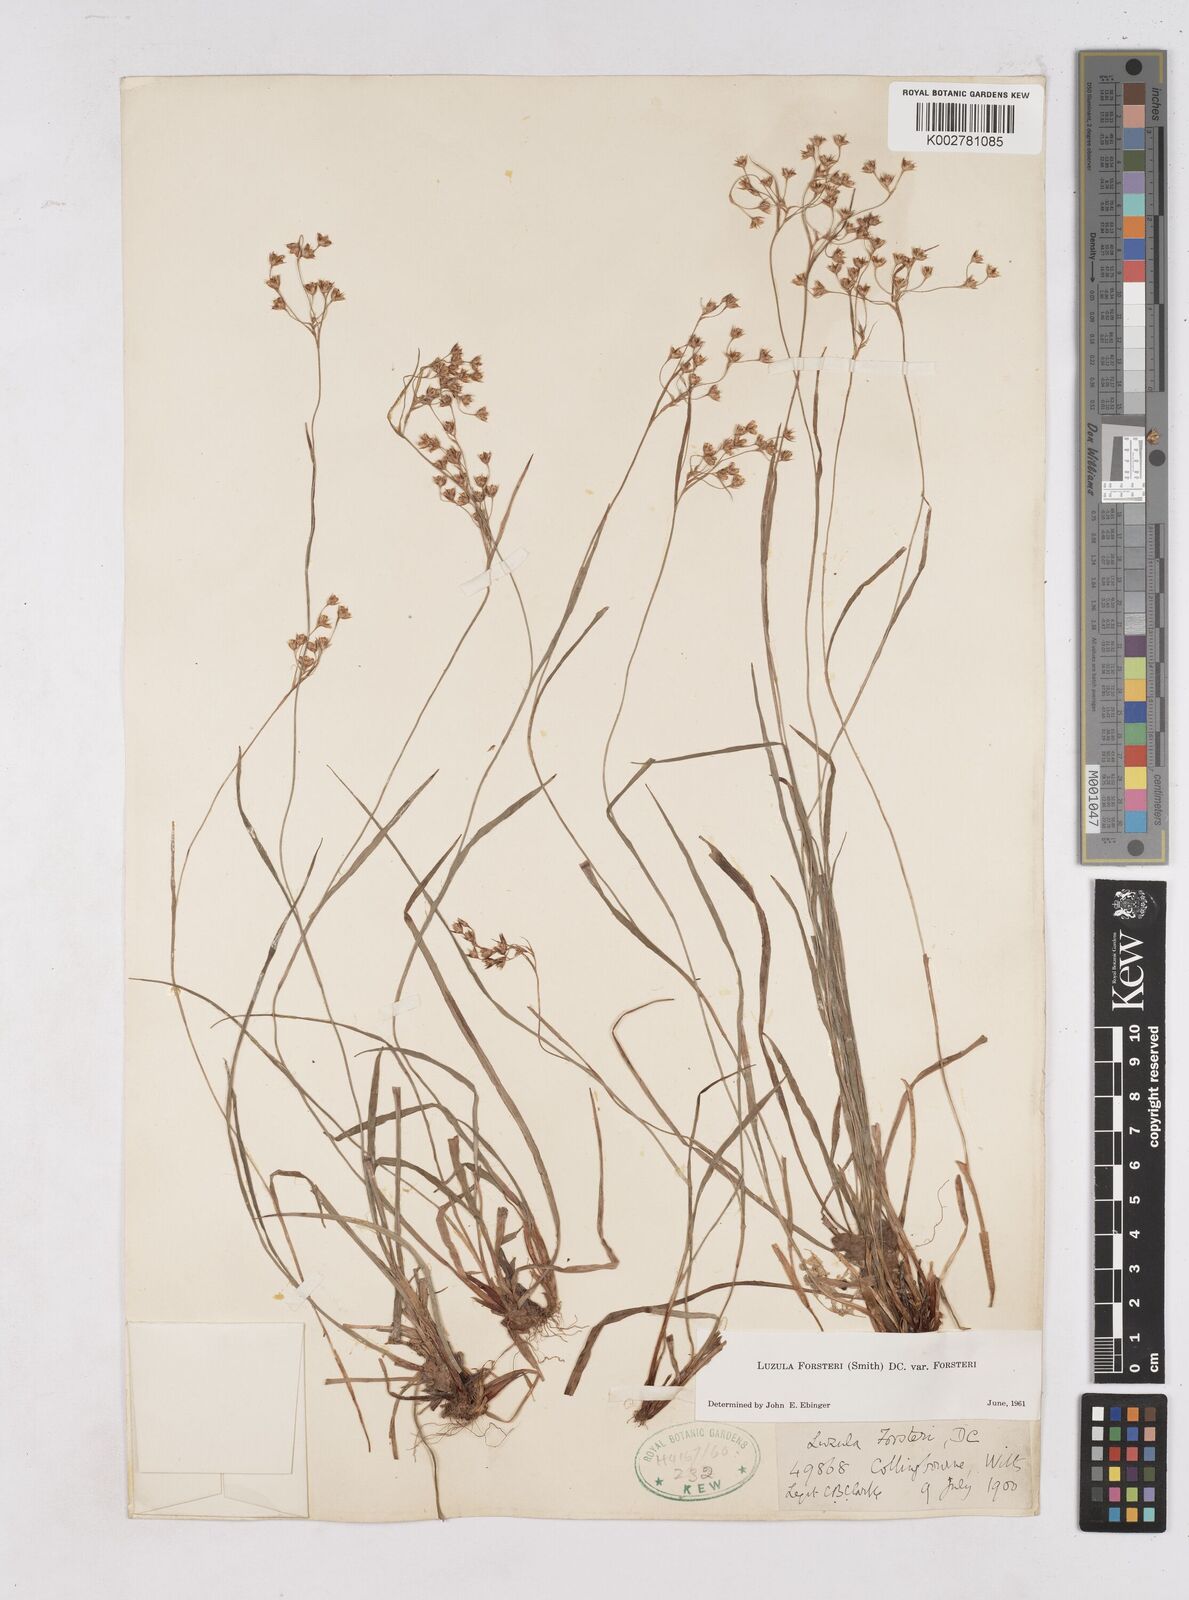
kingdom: Plantae
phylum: Tracheophyta
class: Liliopsida
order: Poales
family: Juncaceae
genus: Luzula
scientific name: Luzula forsteri
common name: Southern wood-rush
